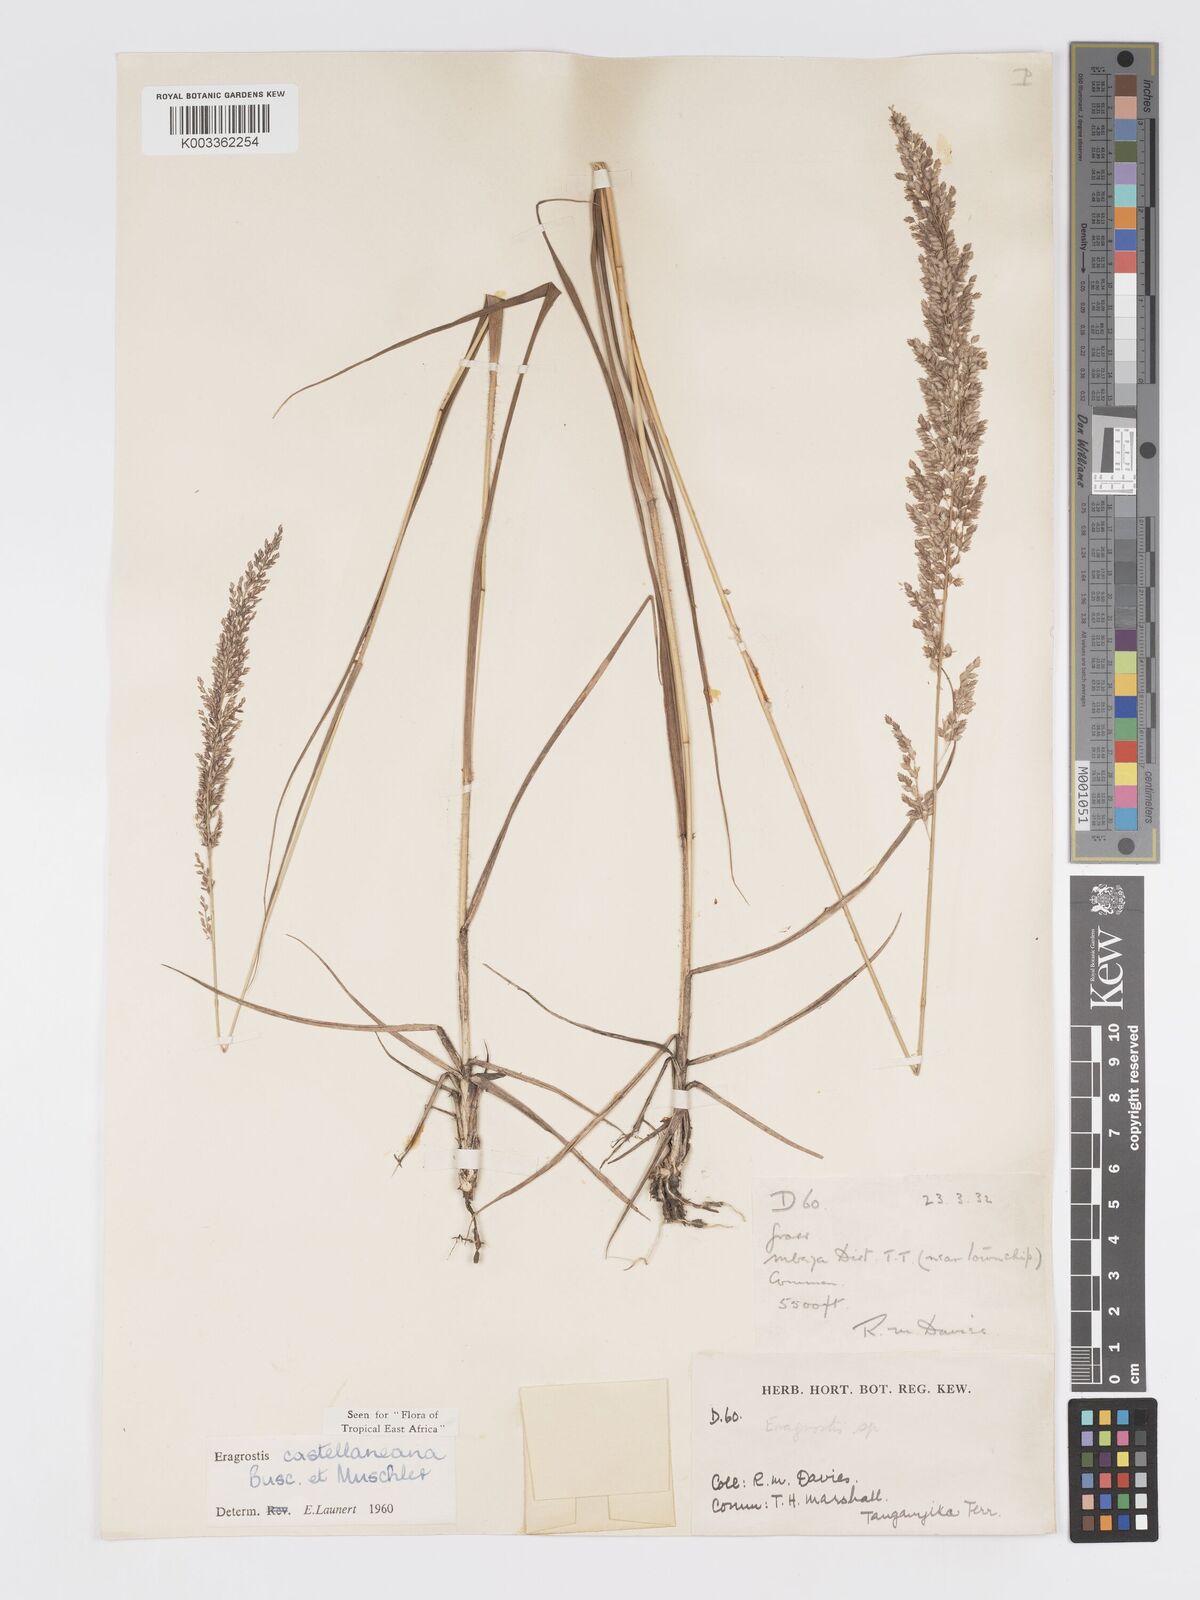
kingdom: Plantae
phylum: Tracheophyta
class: Liliopsida
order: Poales
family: Poaceae
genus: Eragrostis
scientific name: Eragrostis castellaneana
